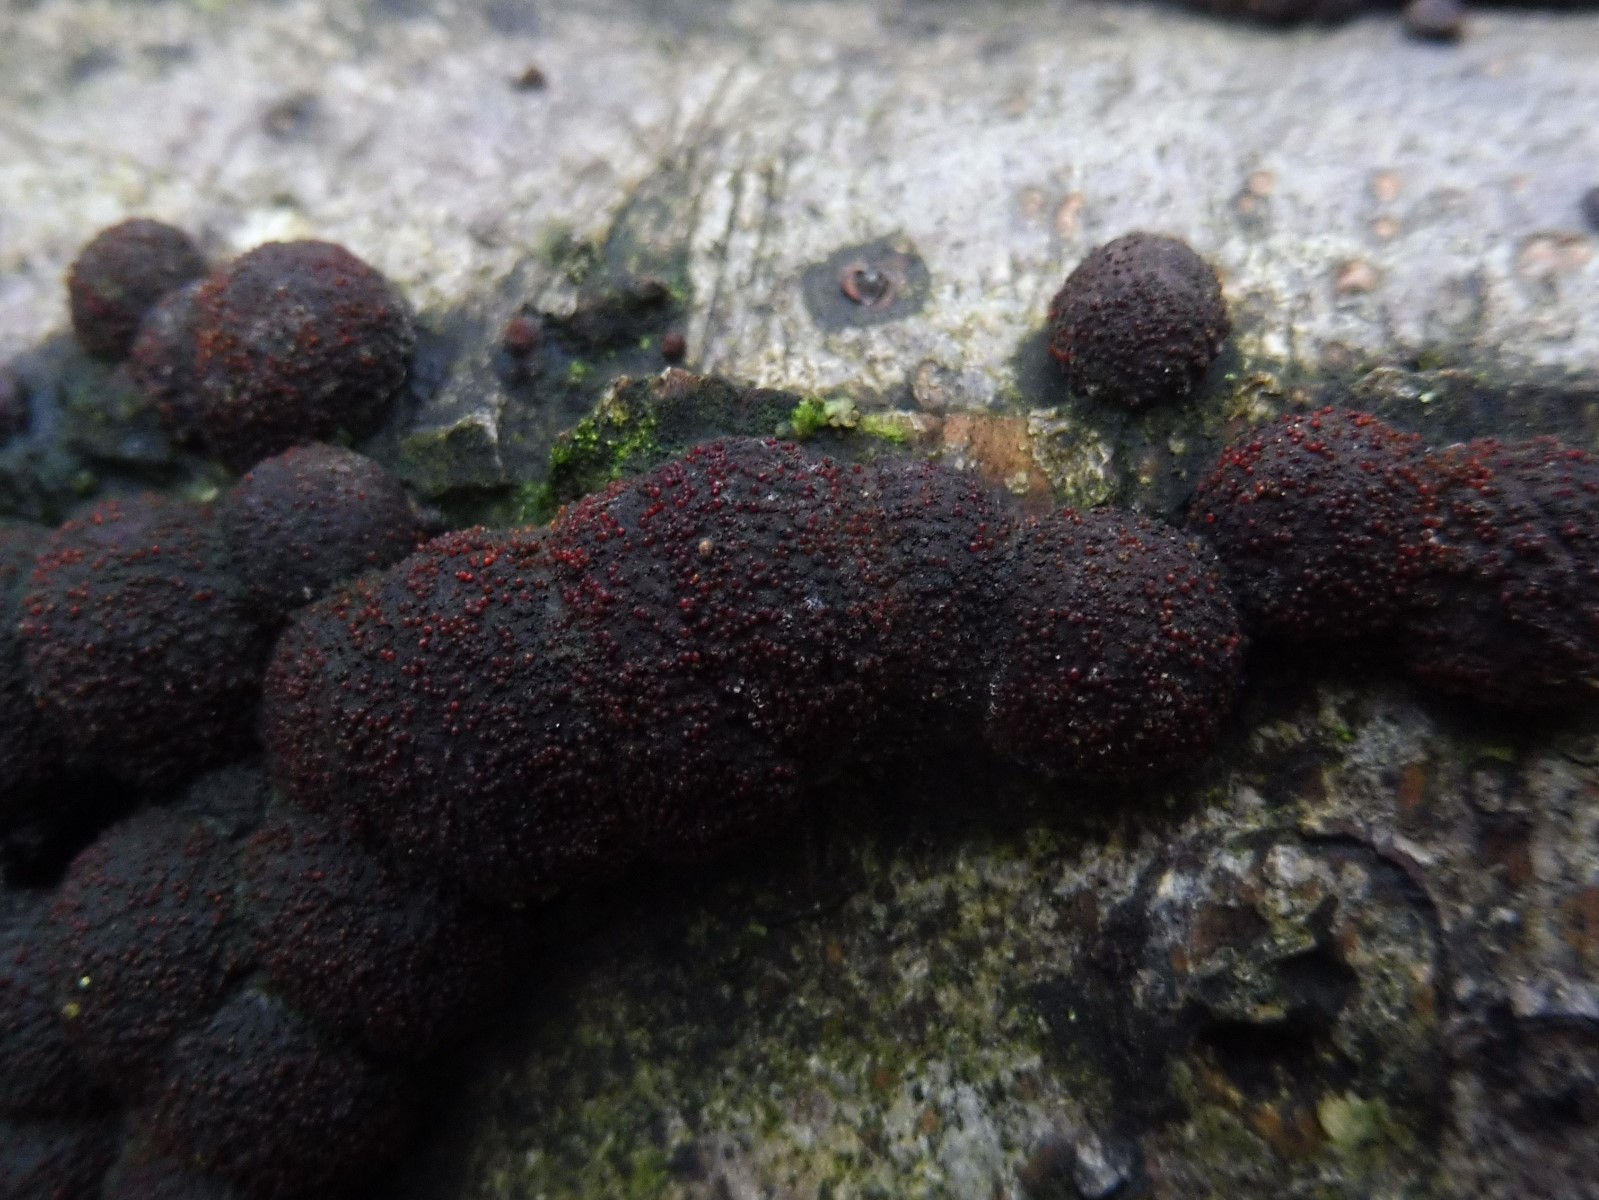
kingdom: Fungi
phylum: Ascomycota
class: Sordariomycetes
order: Hypocreales
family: Nectriaceae
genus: Cosmospora
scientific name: Cosmospora arxii
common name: kuljordbær-cinnobersvamp
